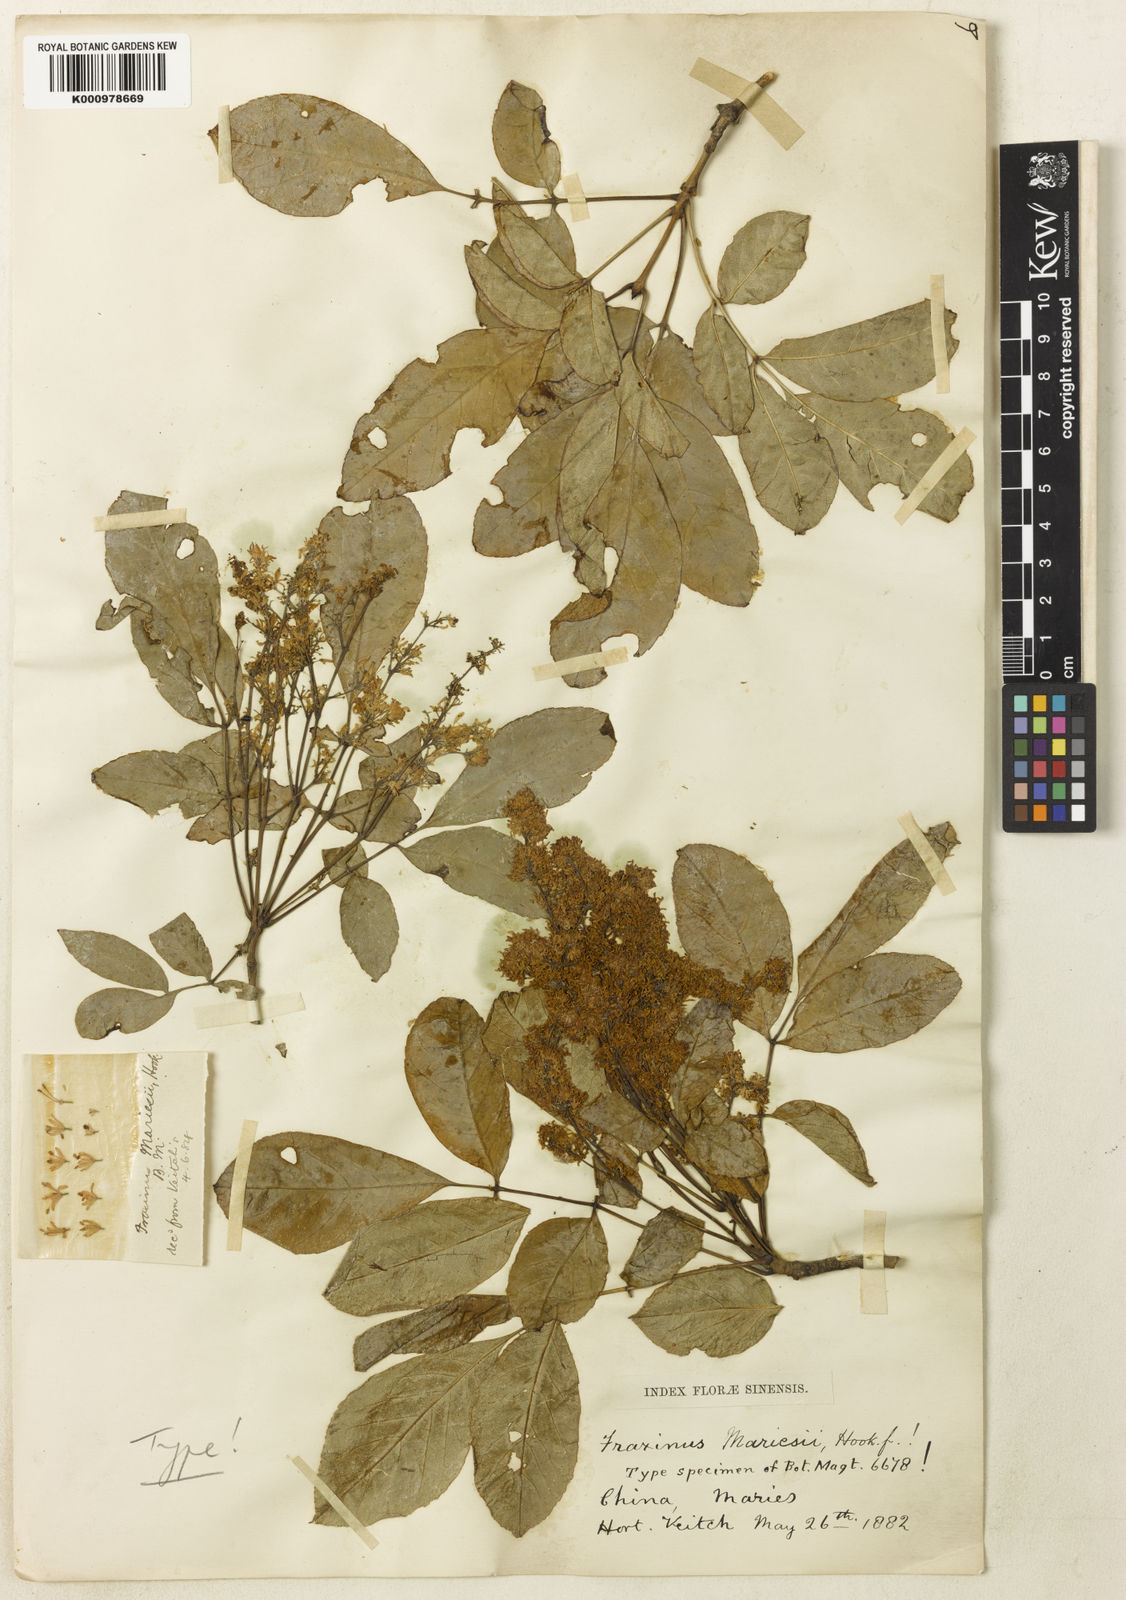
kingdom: Plantae
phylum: Tracheophyta
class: Magnoliopsida
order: Lamiales
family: Oleaceae
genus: Fraxinus
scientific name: Fraxinus longicuspis
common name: Japanese ash
